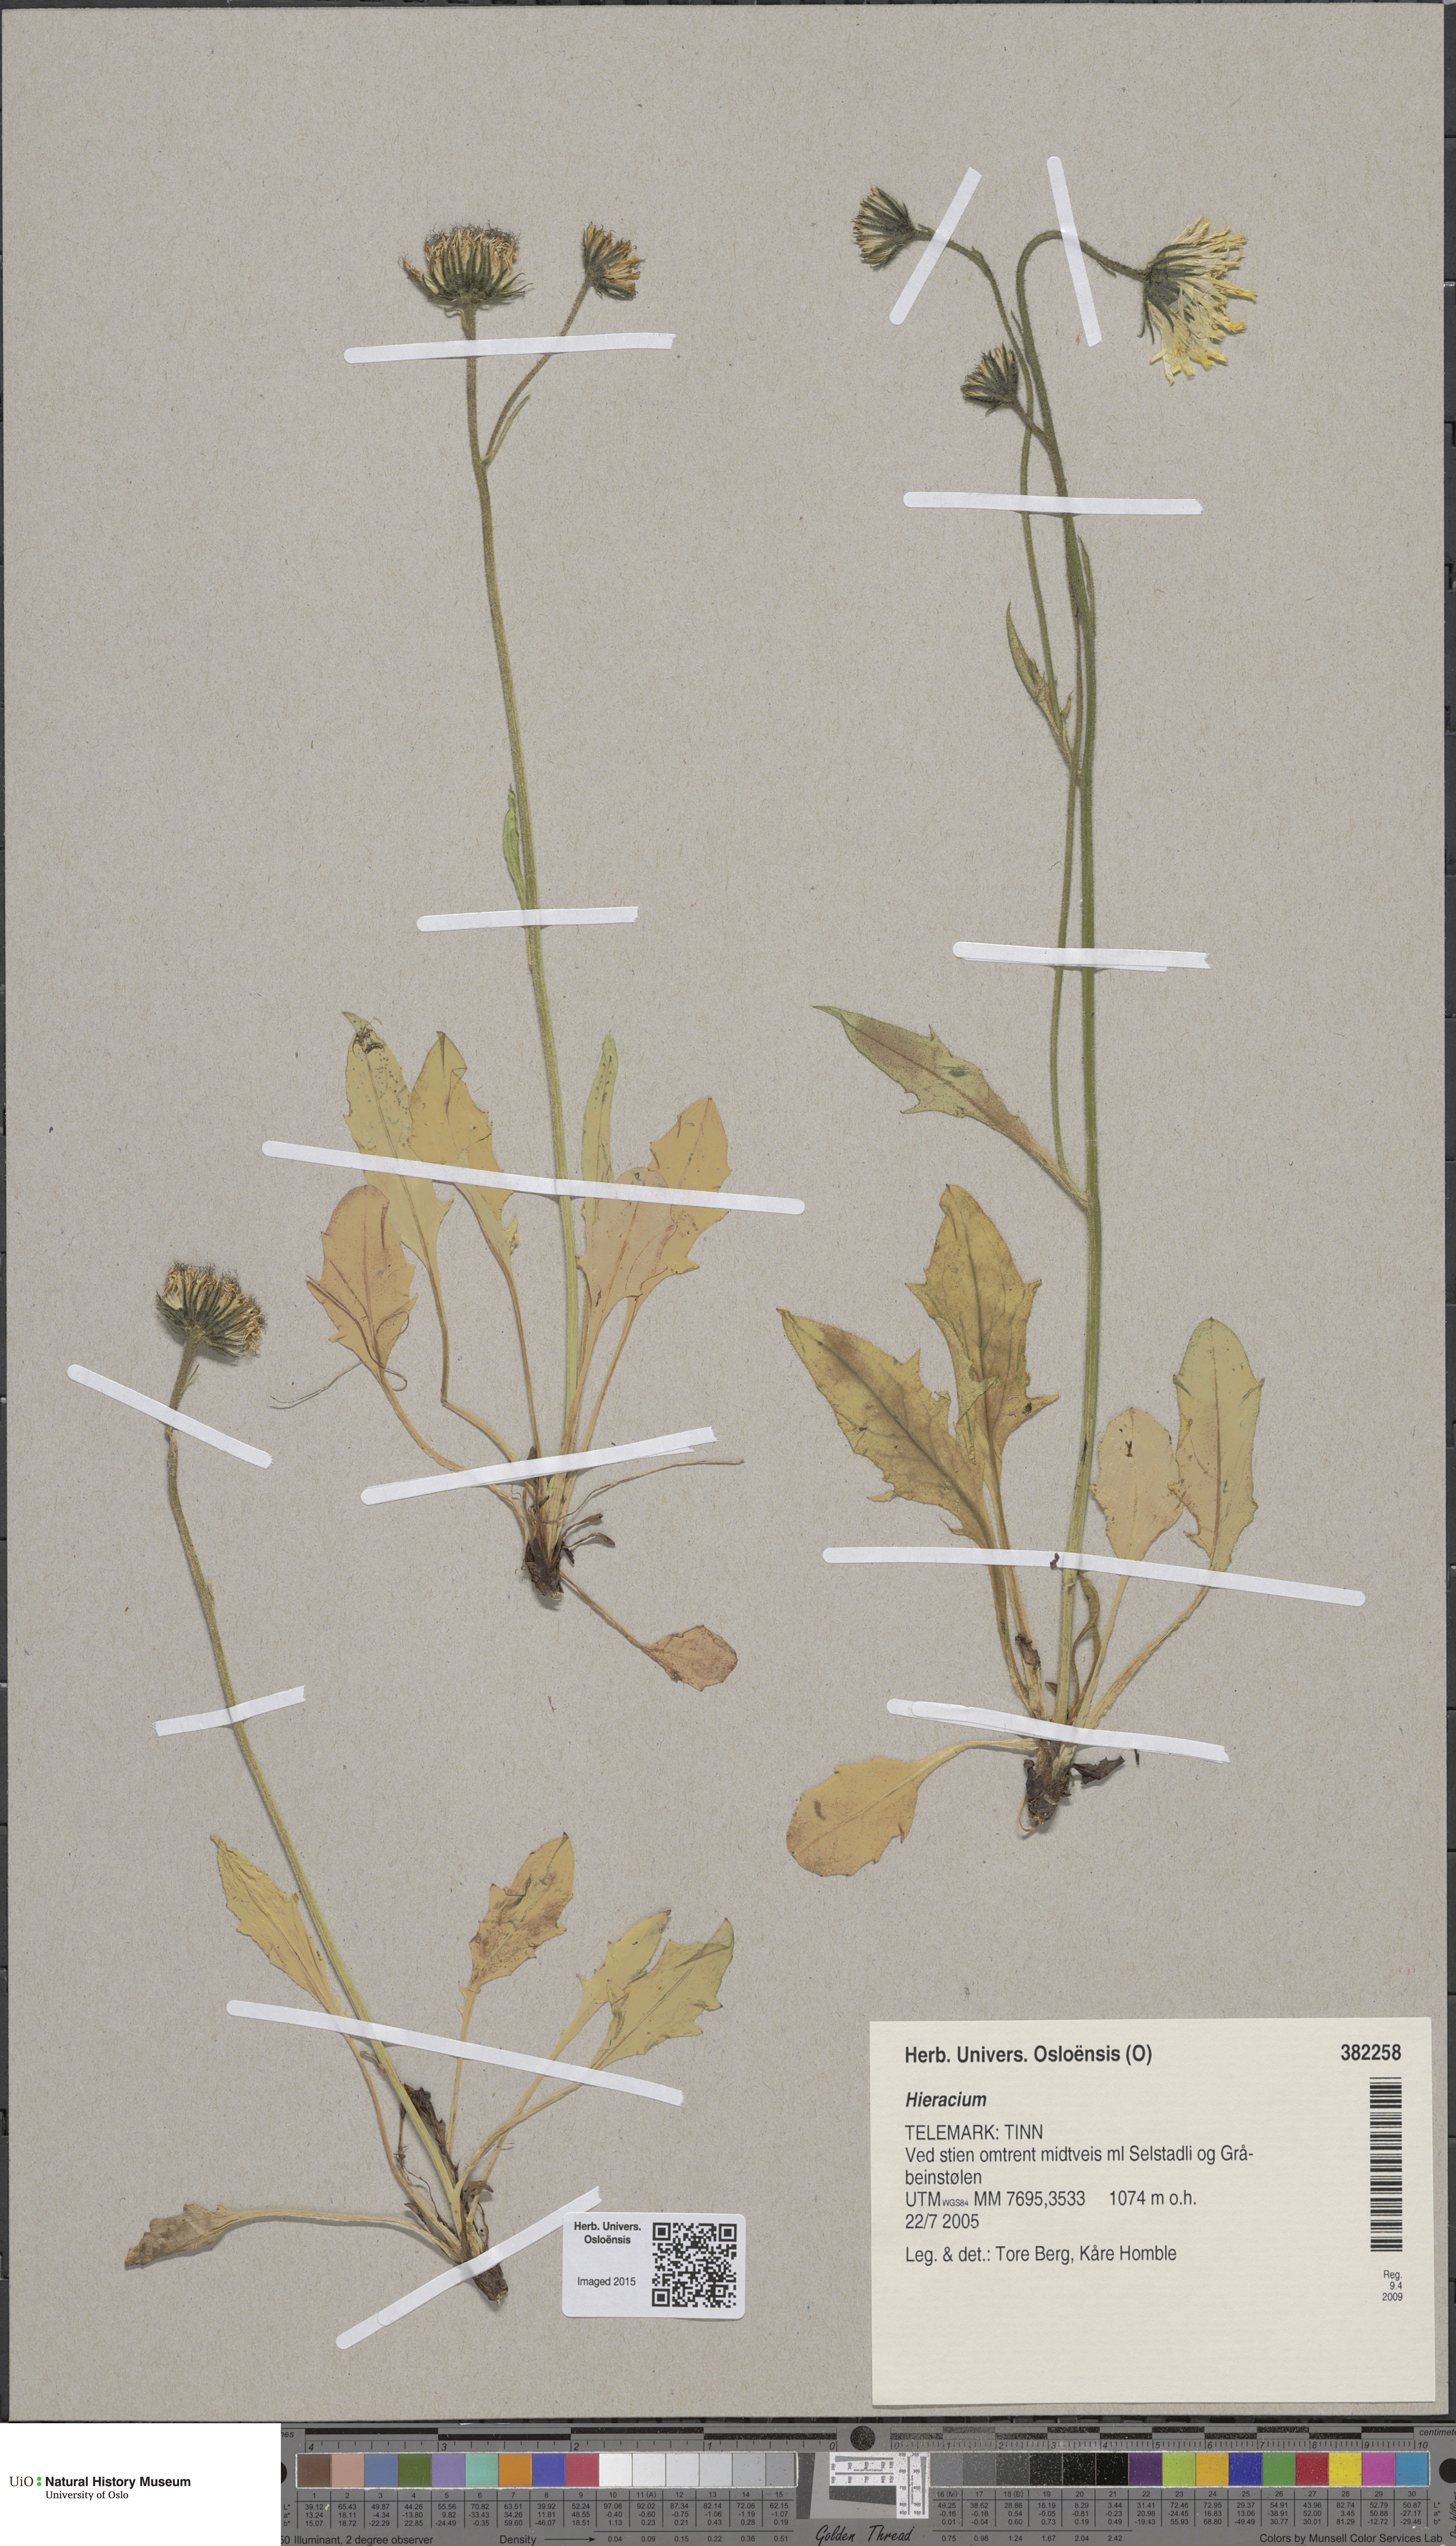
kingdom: Plantae
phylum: Tracheophyta
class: Magnoliopsida
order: Asterales
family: Asteraceae
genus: Hieracium
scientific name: Hieracium
